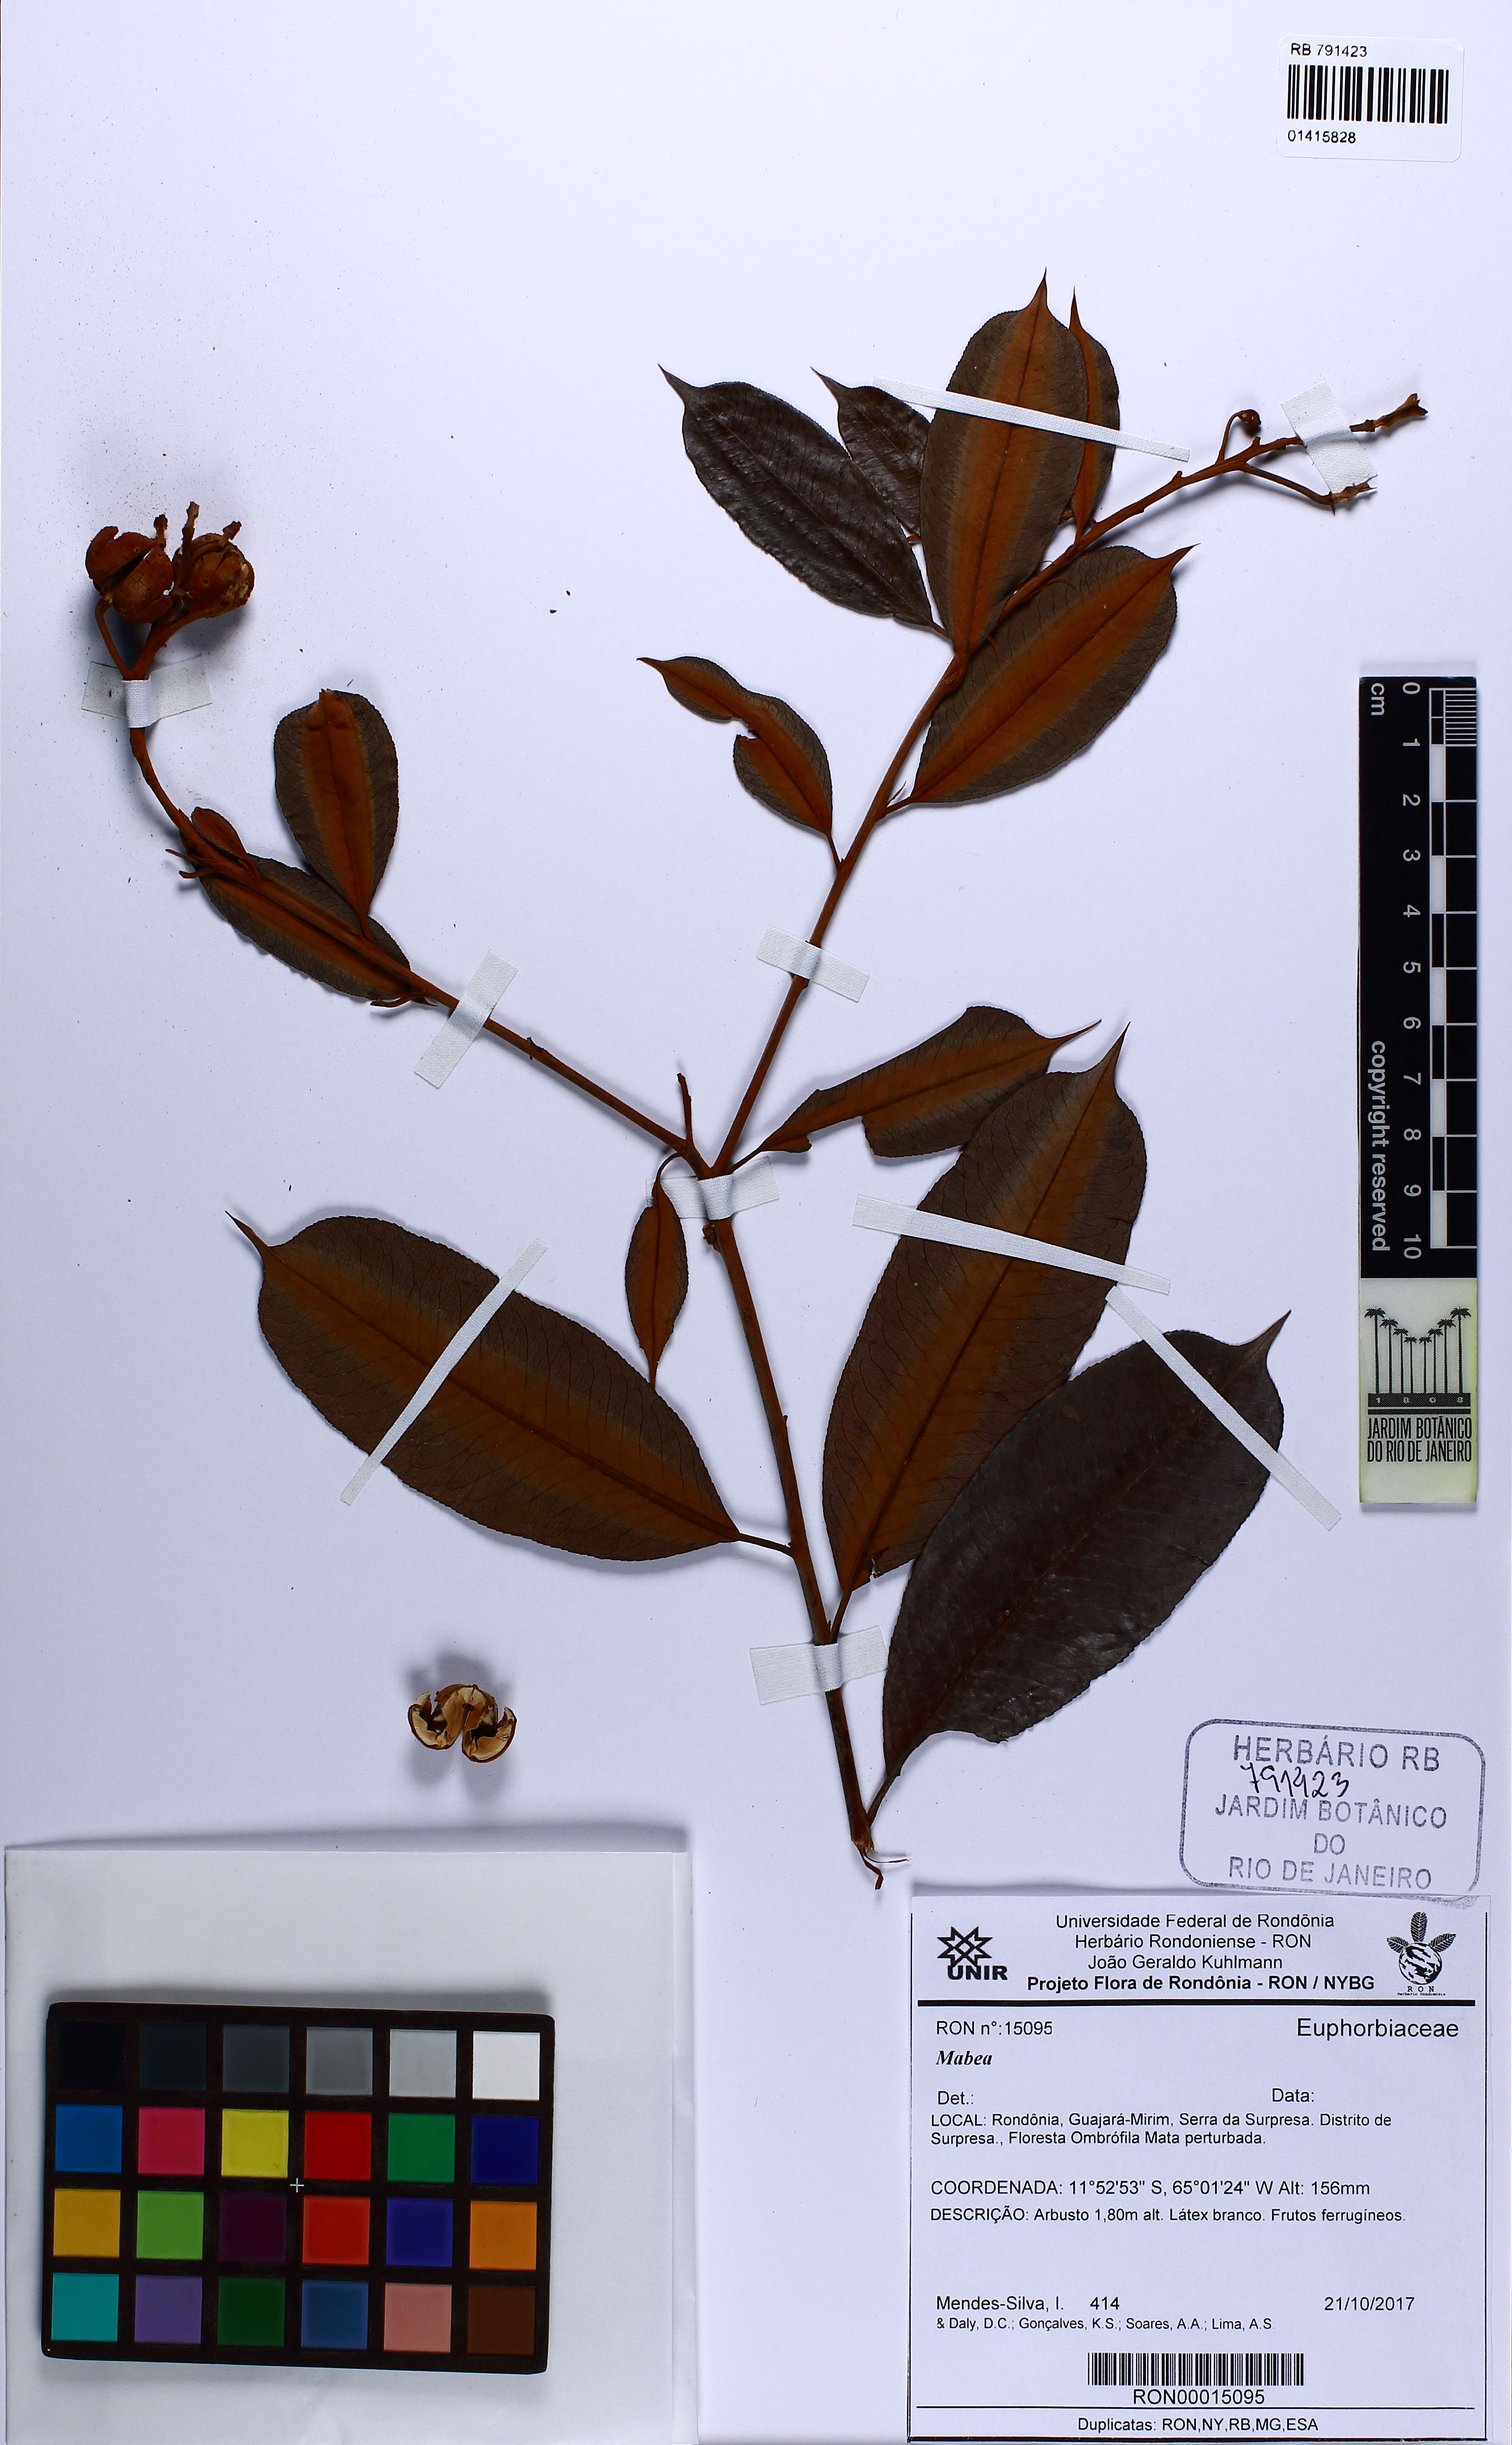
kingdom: Plantae
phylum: Tracheophyta
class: Magnoliopsida
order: Malpighiales
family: Euphorbiaceae
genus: Mabea
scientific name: Mabea
